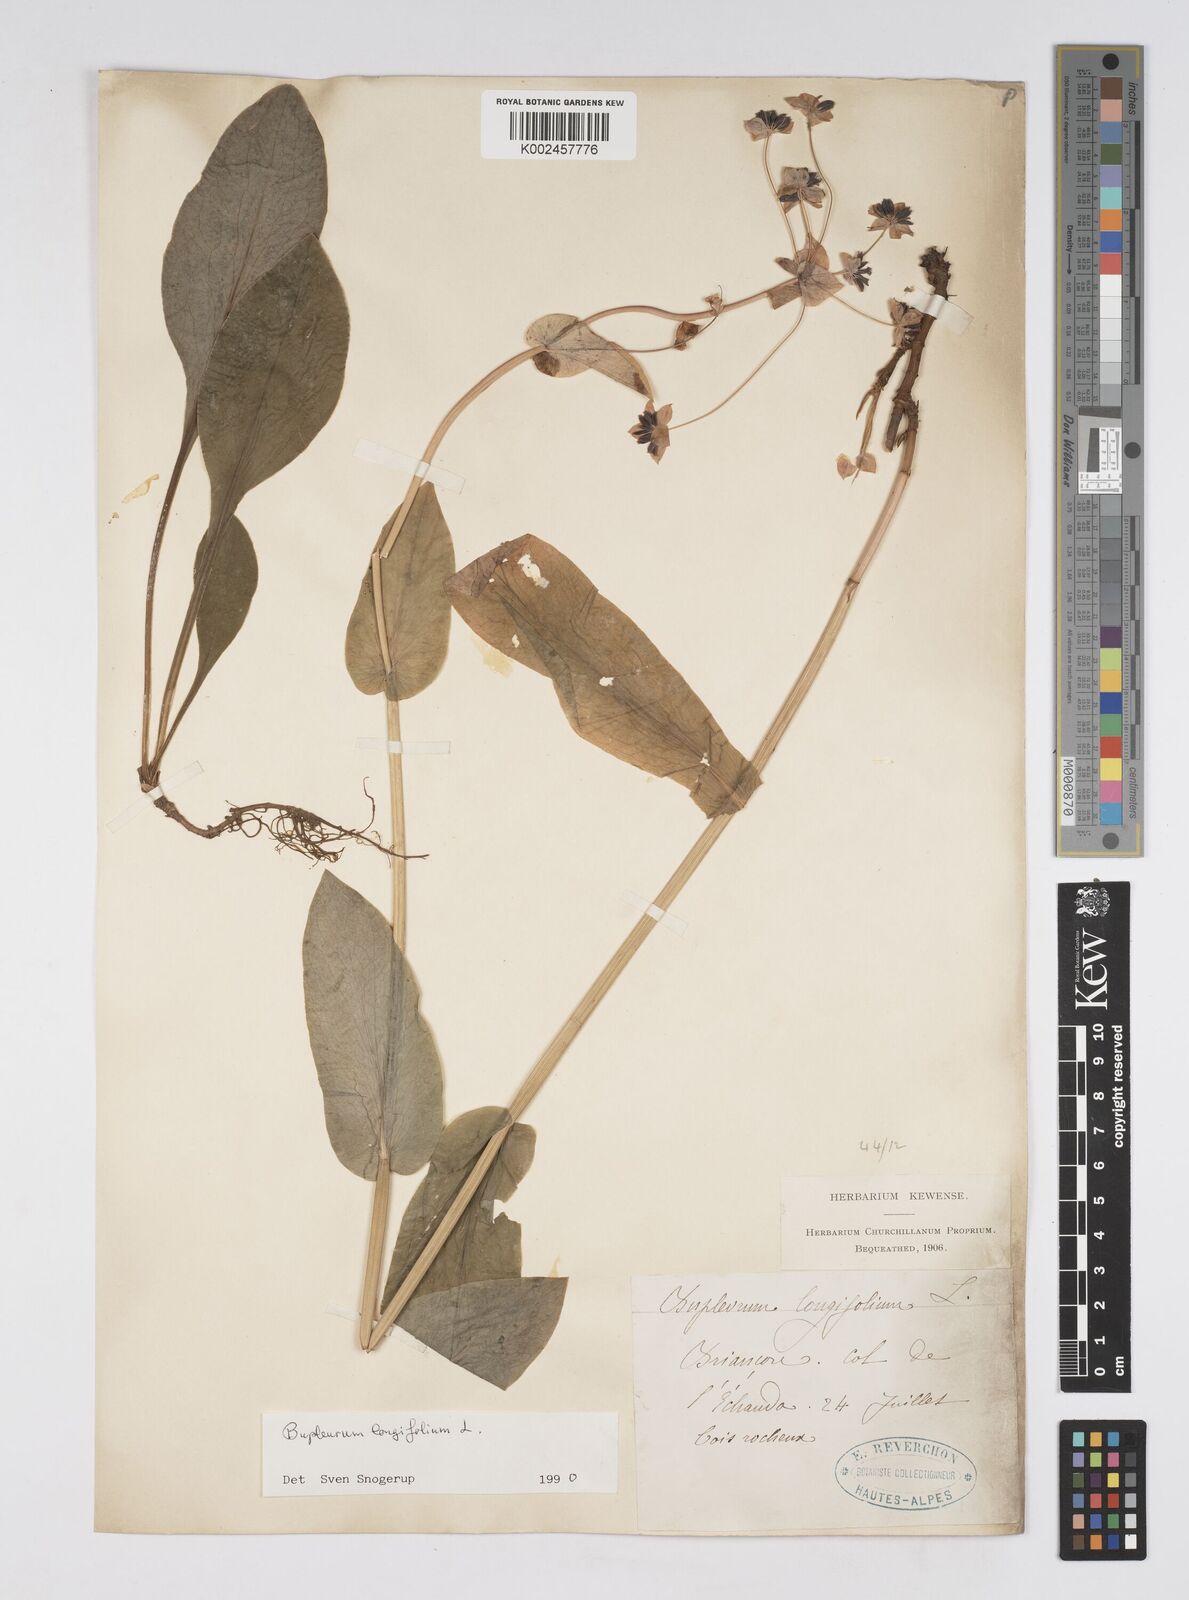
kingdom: Plantae
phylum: Tracheophyta
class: Magnoliopsida
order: Apiales
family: Apiaceae
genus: Bupleurum
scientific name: Bupleurum longifolium
